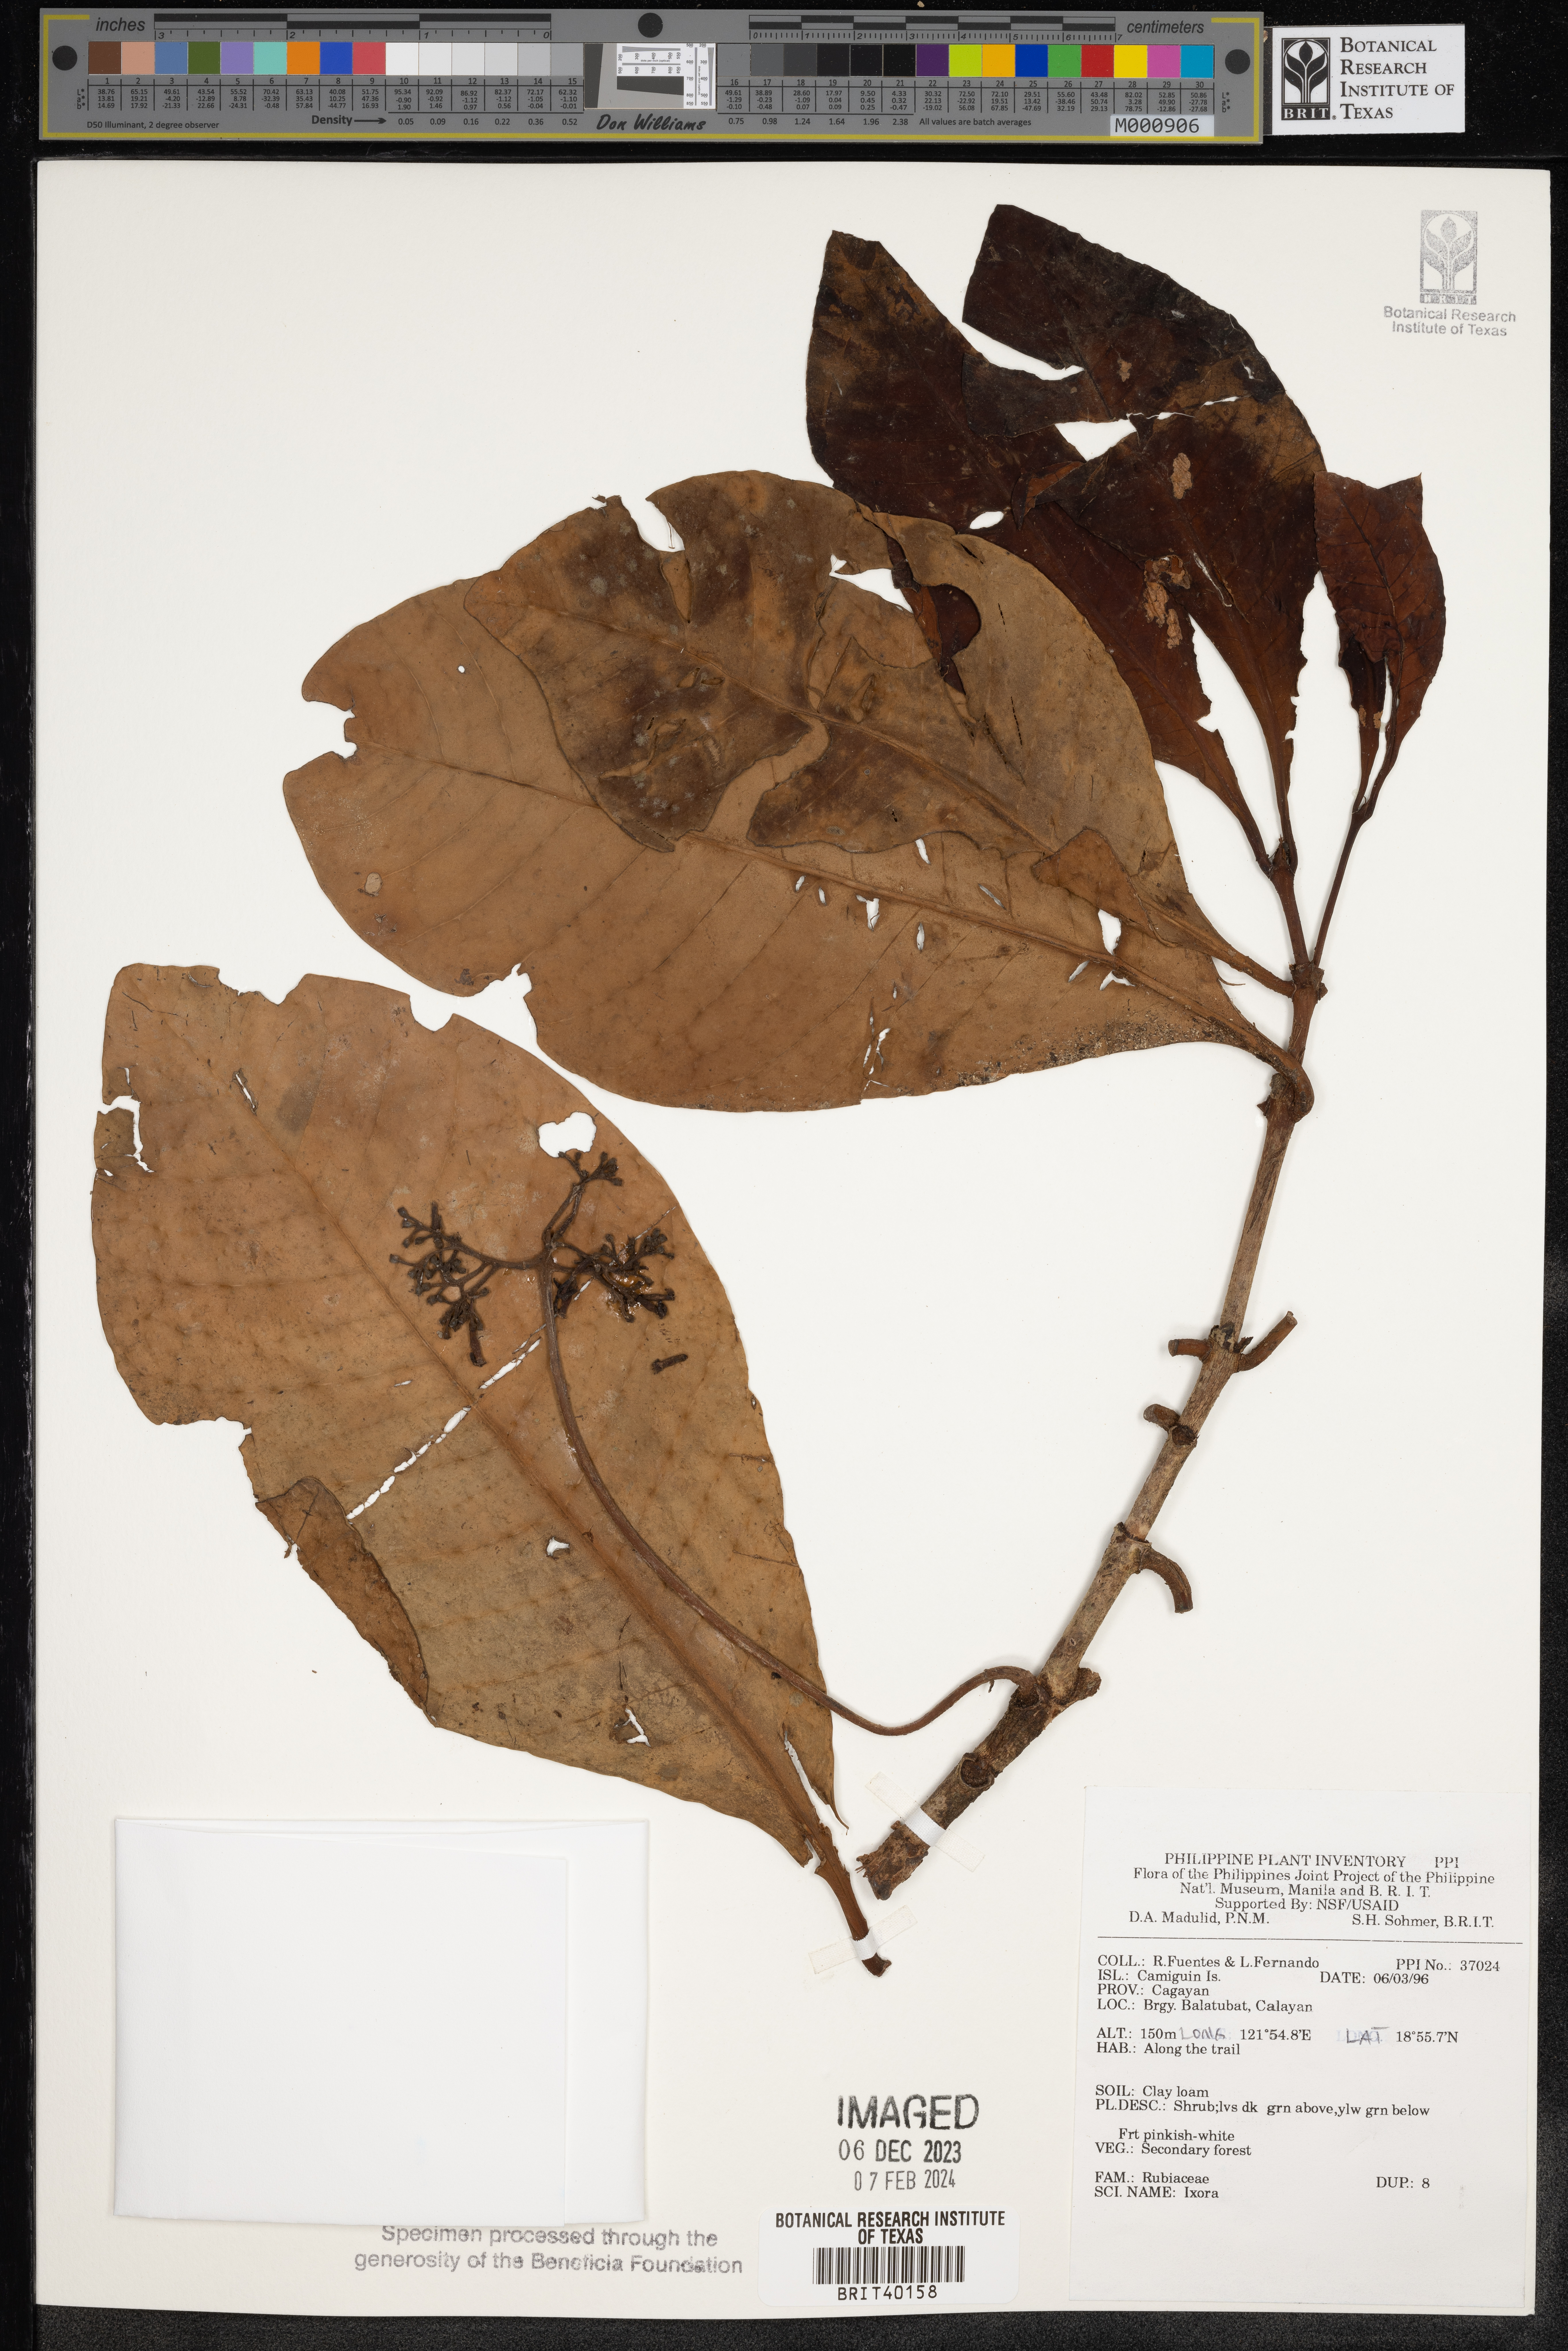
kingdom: Plantae
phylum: Tracheophyta
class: Magnoliopsida
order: Gentianales
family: Rubiaceae
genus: Ixora
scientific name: Ixora
